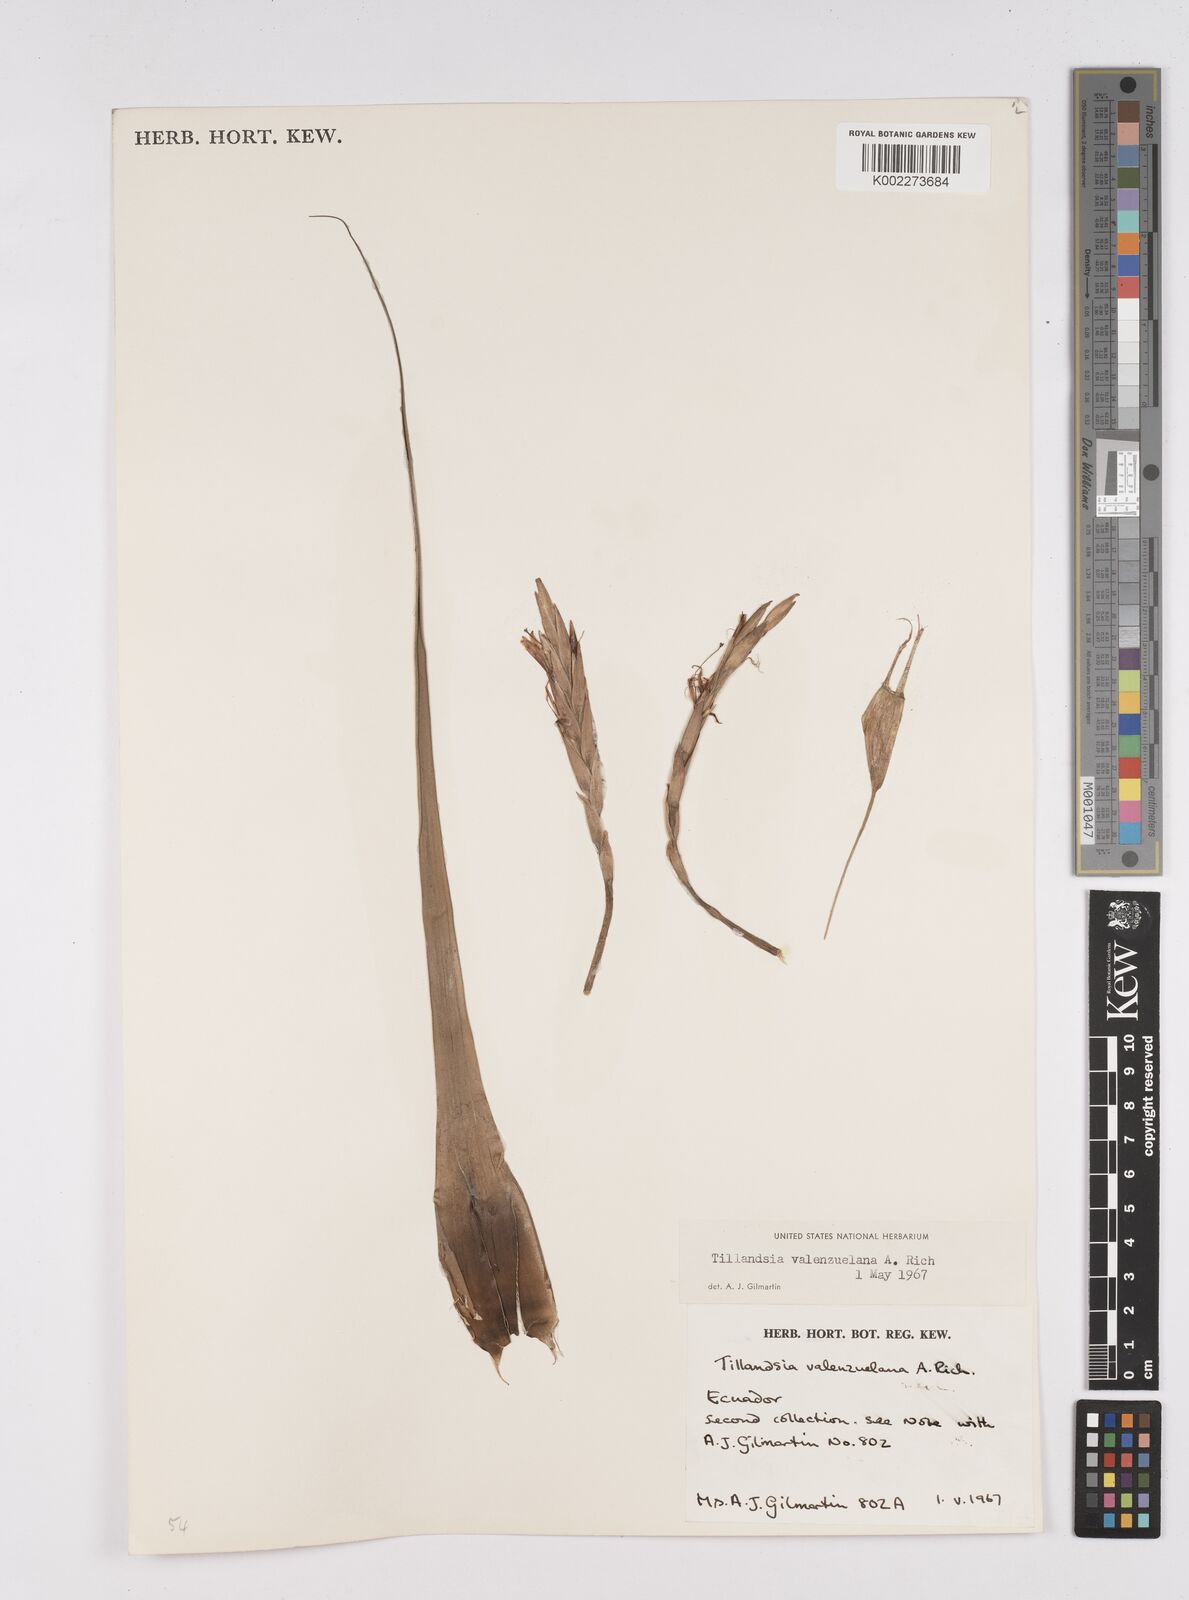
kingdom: Plantae
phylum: Tracheophyta
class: Liliopsida
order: Poales
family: Bromeliaceae
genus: Tillandsia
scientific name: Tillandsia variabilis
